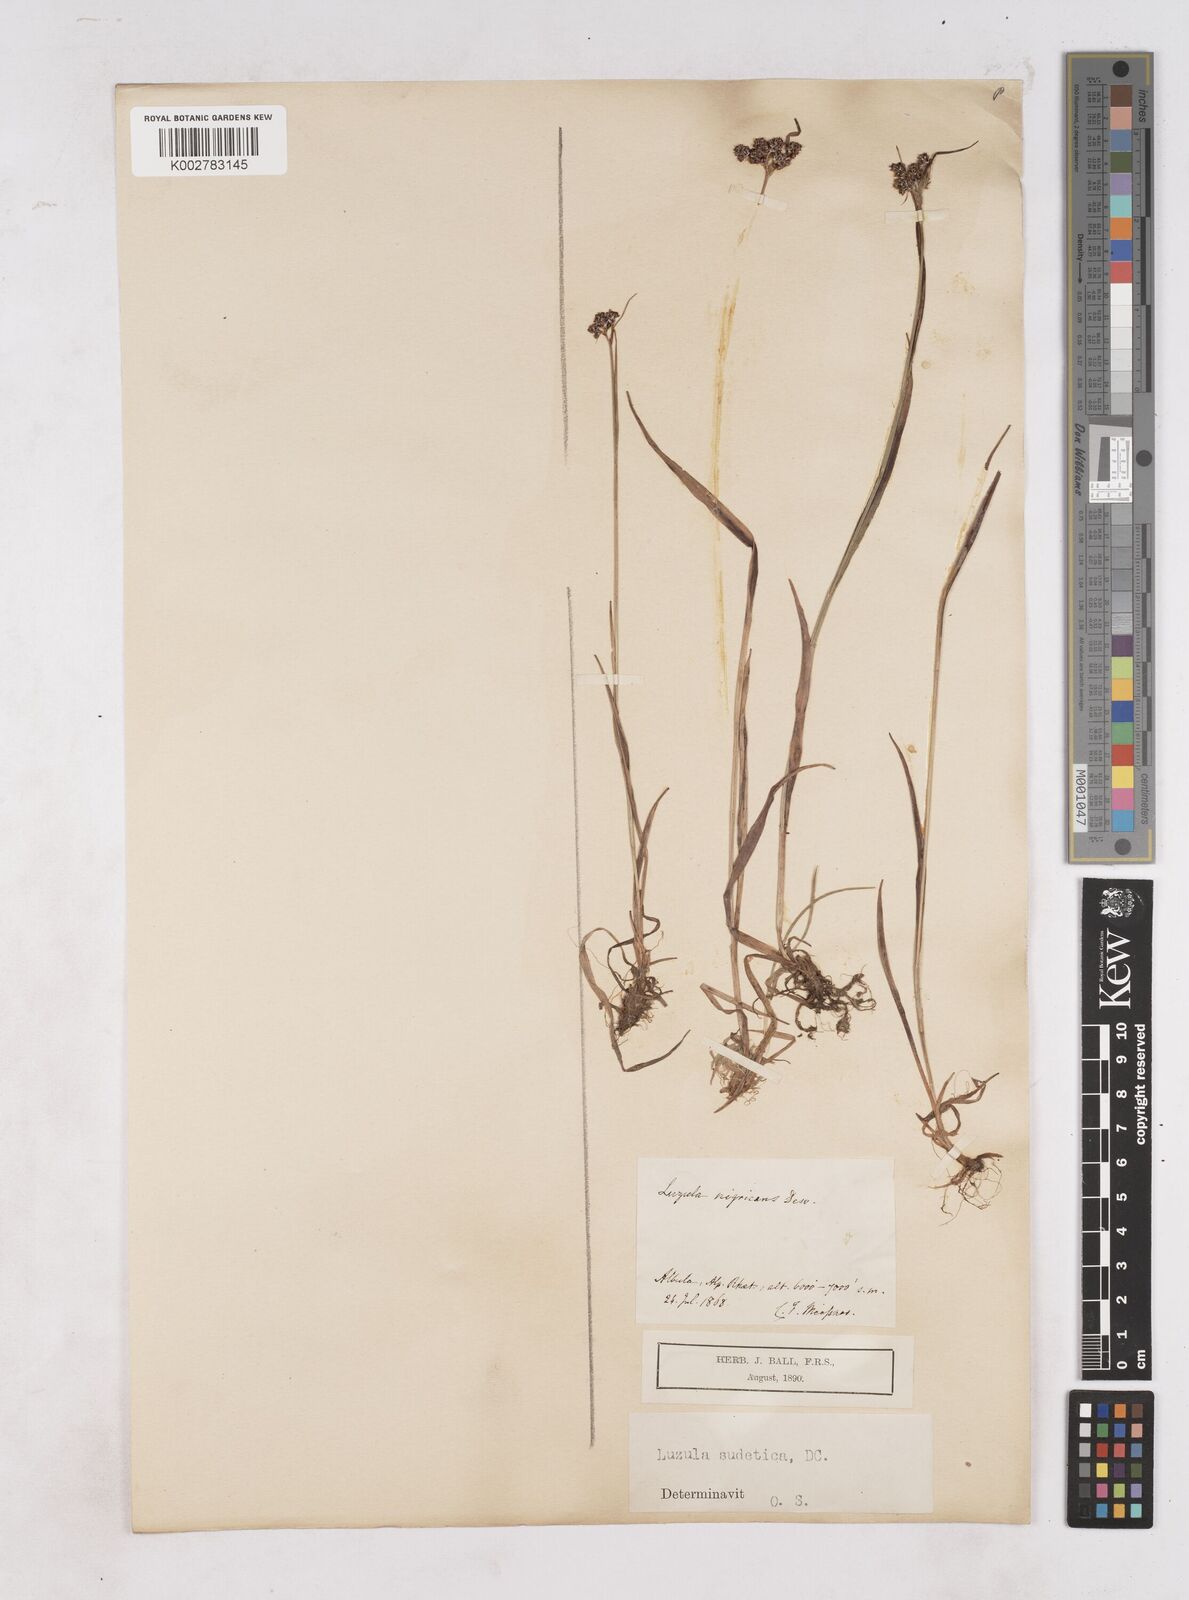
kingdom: Plantae
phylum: Tracheophyta
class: Liliopsida
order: Poales
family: Juncaceae
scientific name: Juncaceae
